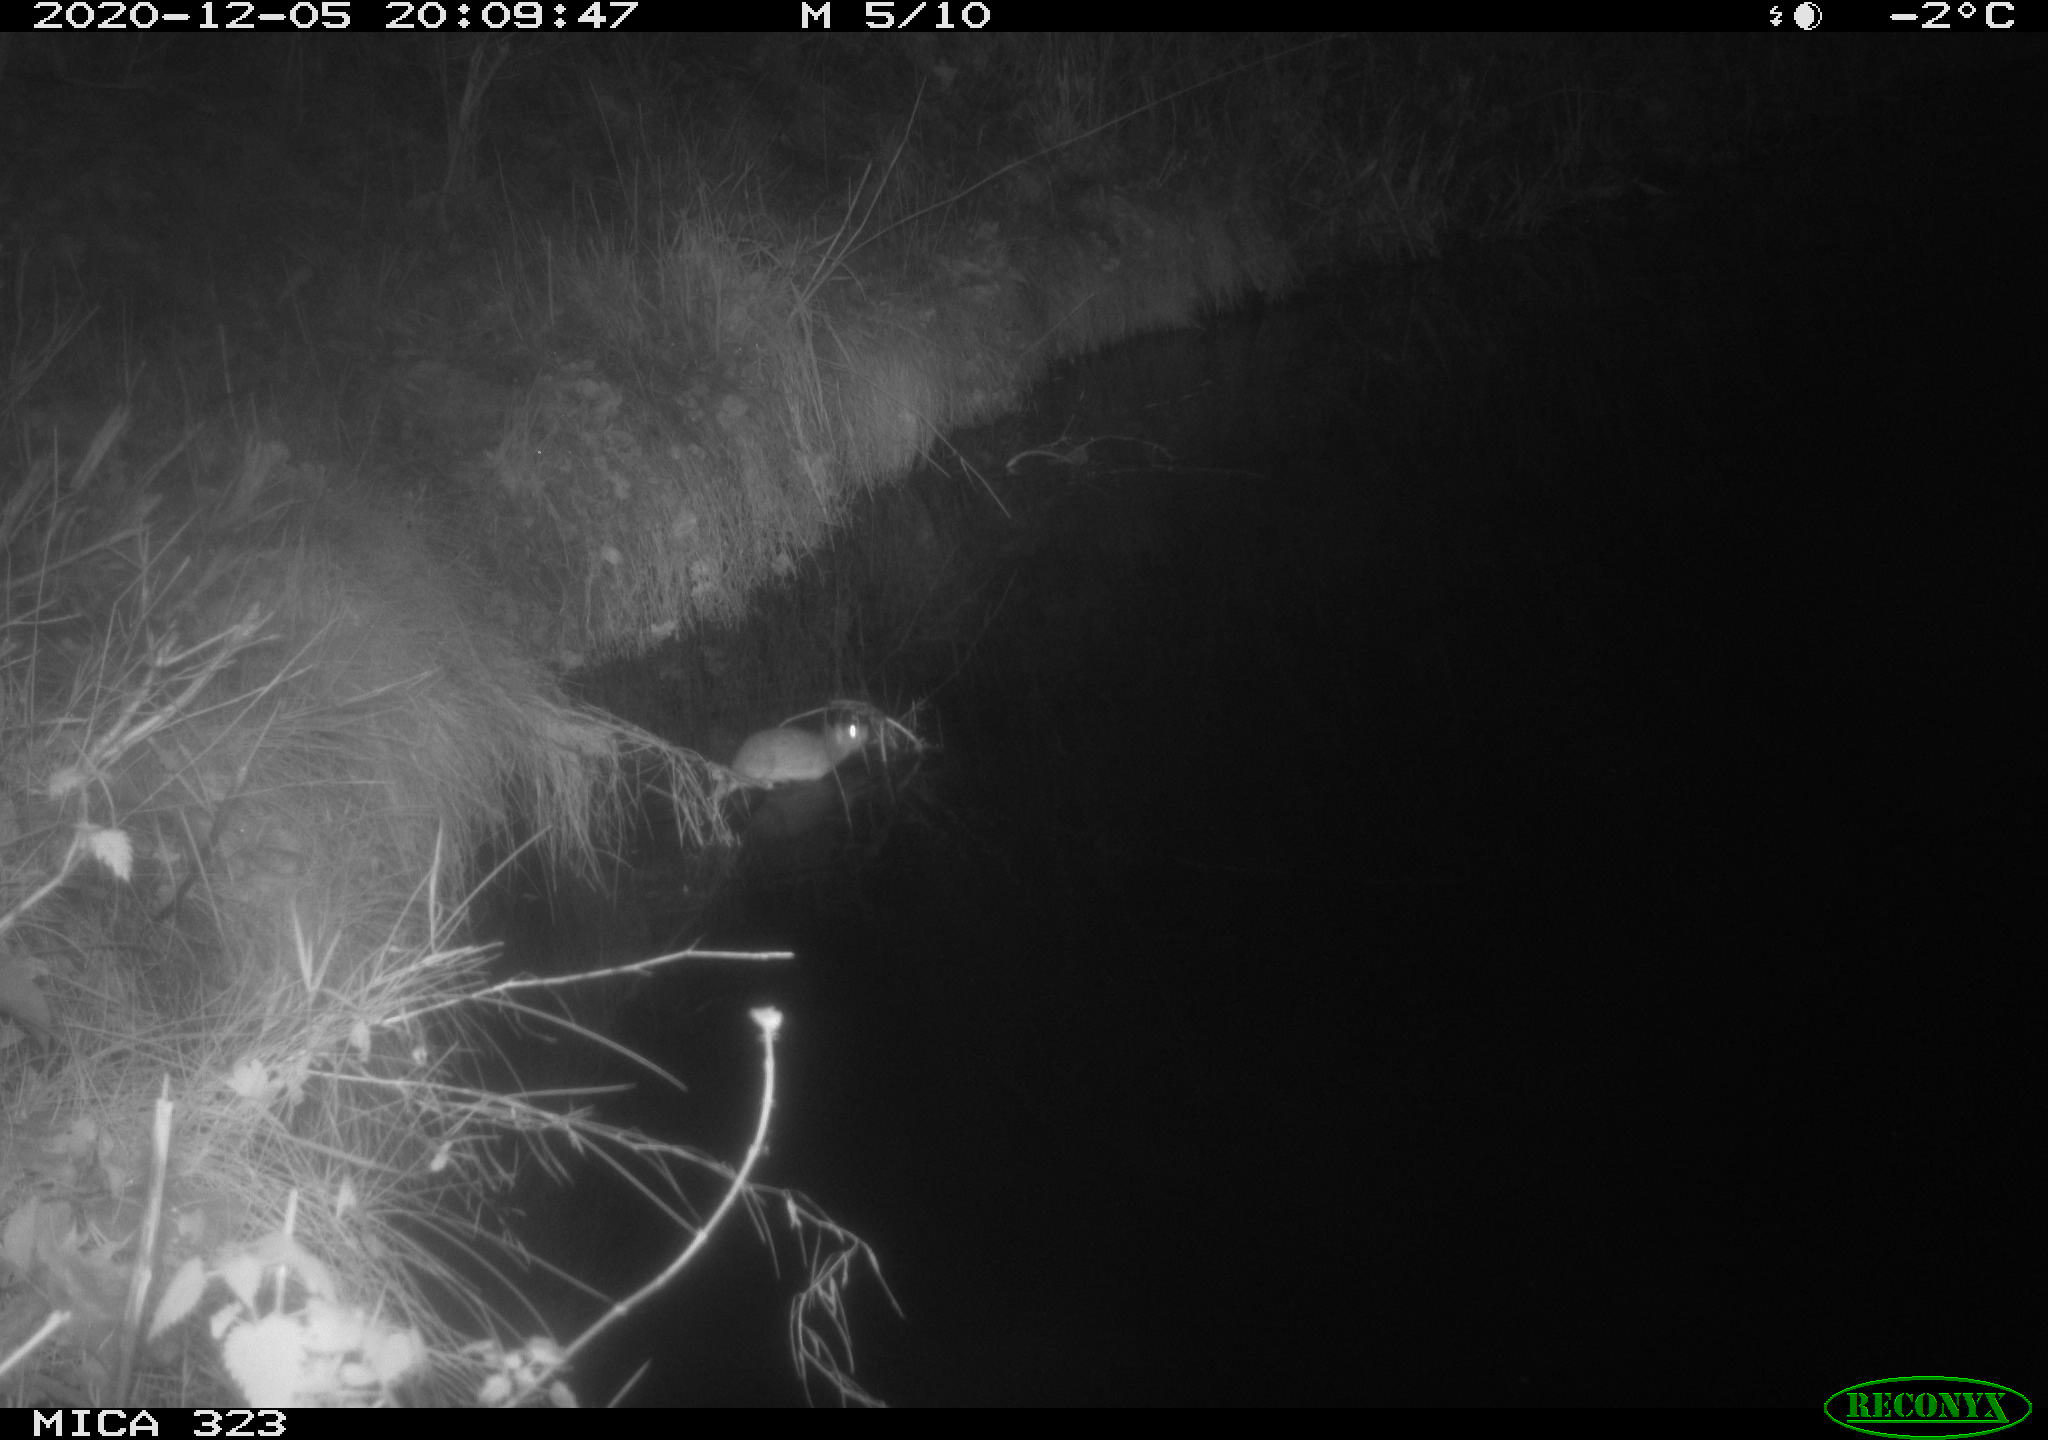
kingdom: Animalia
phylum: Chordata
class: Mammalia
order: Rodentia
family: Muridae
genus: Rattus
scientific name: Rattus norvegicus
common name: Brown rat
